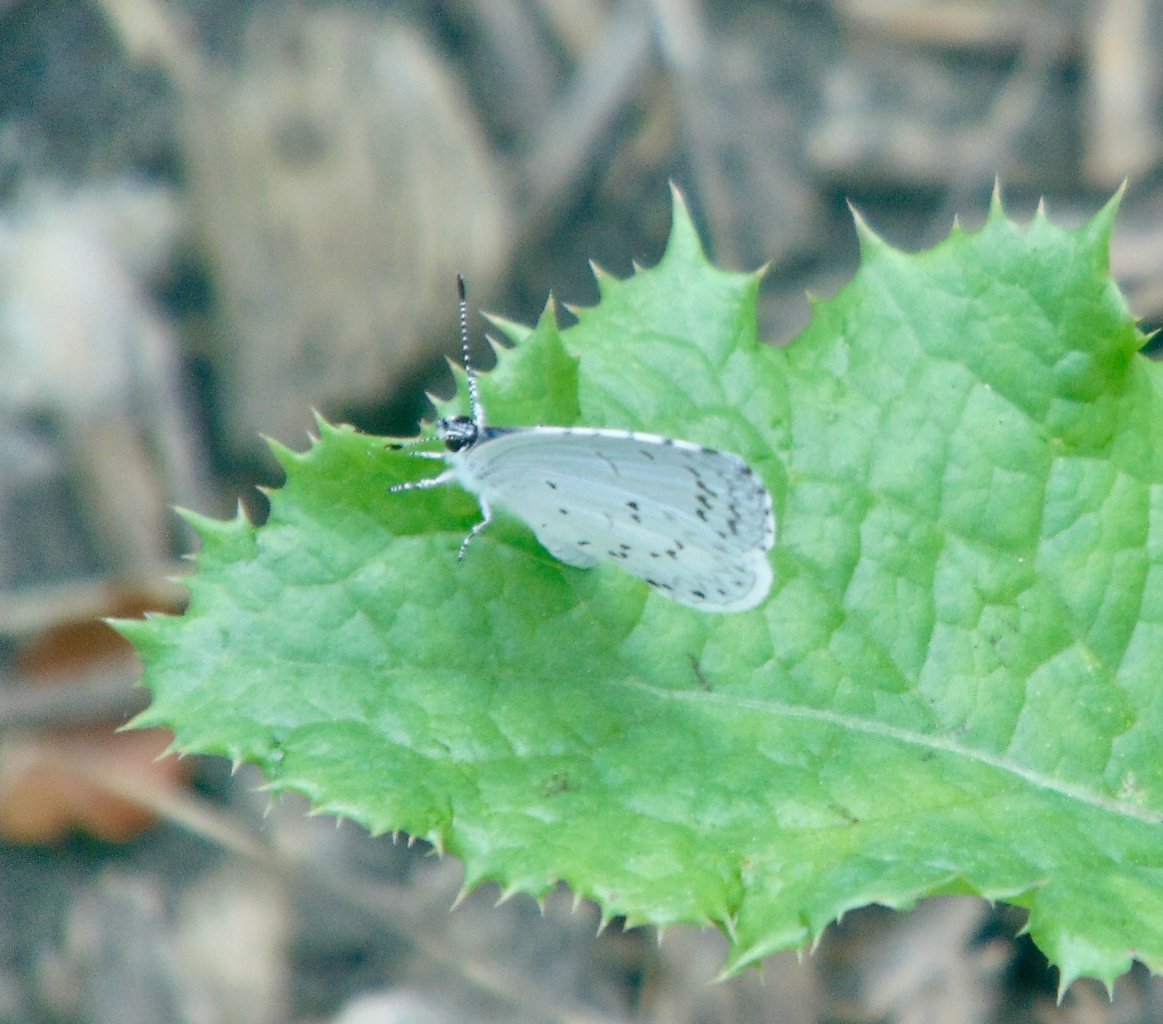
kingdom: Animalia
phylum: Arthropoda
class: Insecta
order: Lepidoptera
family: Lycaenidae
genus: Cyaniris
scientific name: Cyaniris neglecta
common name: Summer Azure
